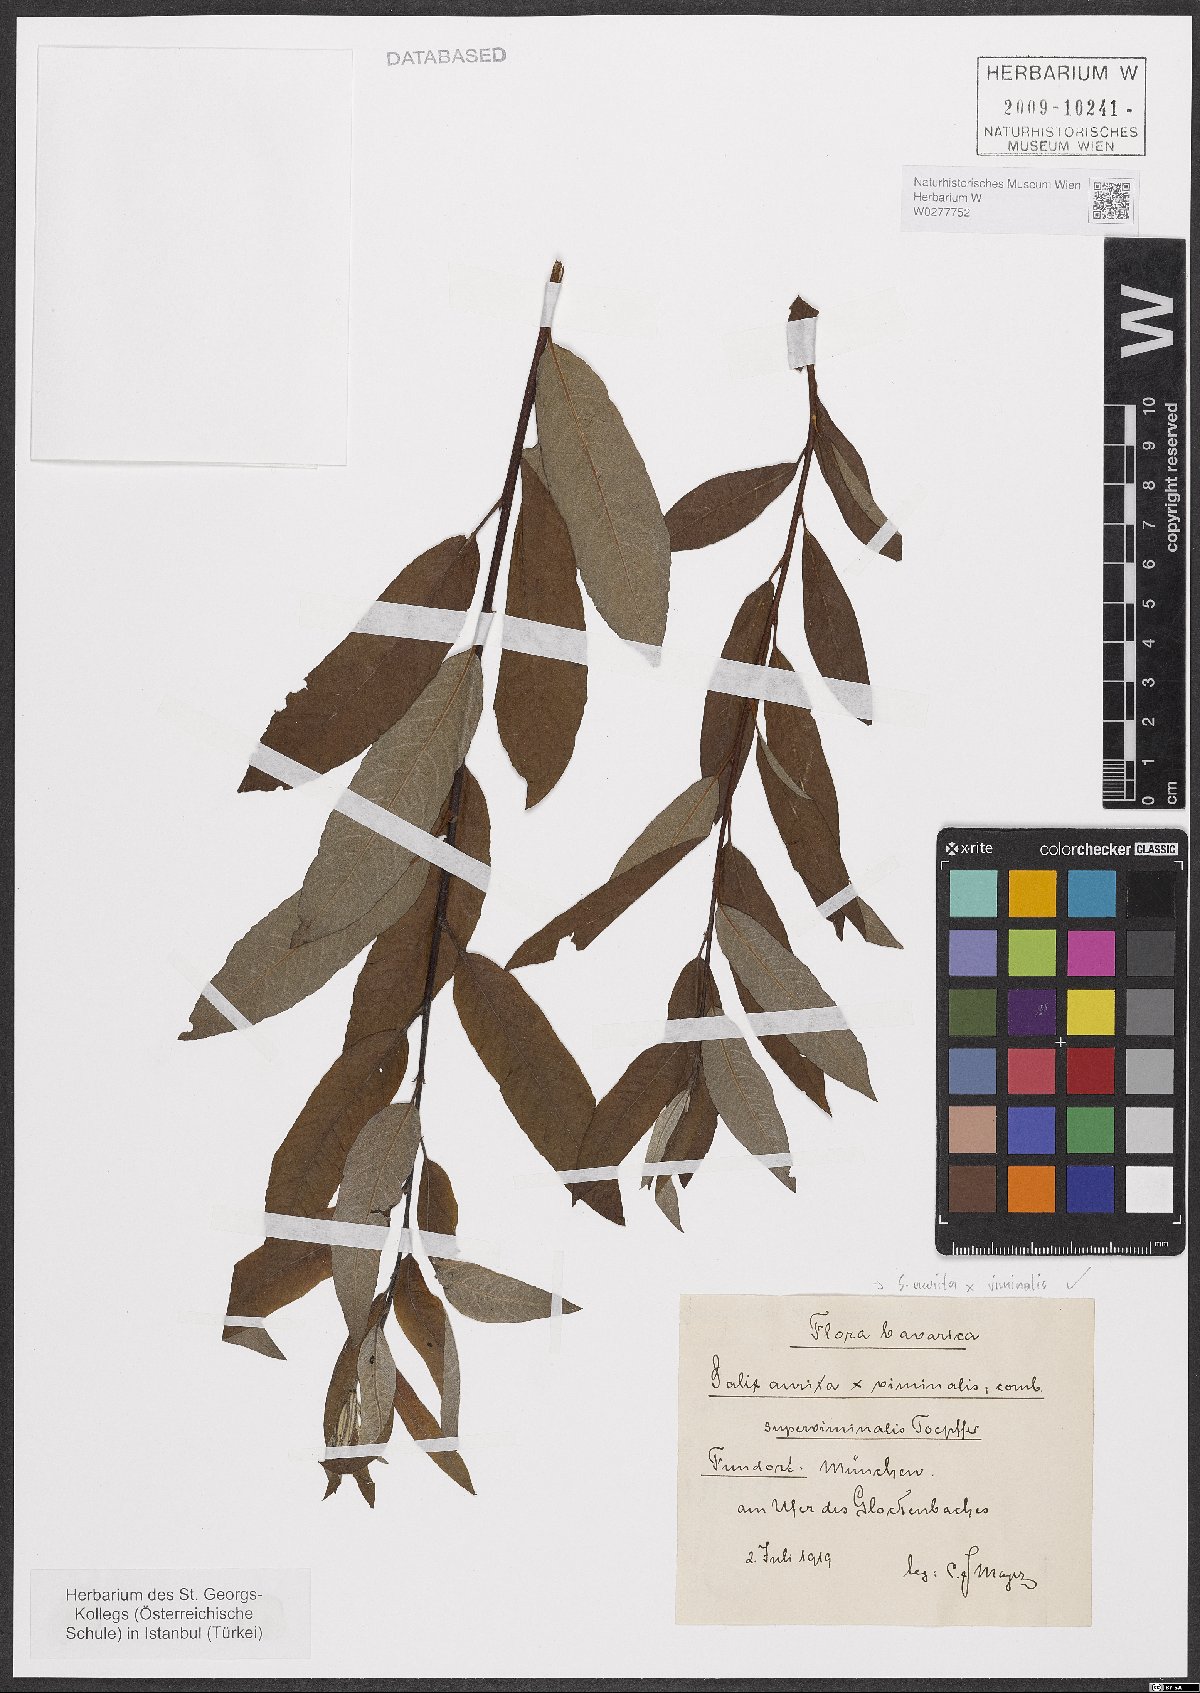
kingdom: Plantae
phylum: Tracheophyta
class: Magnoliopsida
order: Malpighiales
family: Salicaceae
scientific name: Salicaceae
